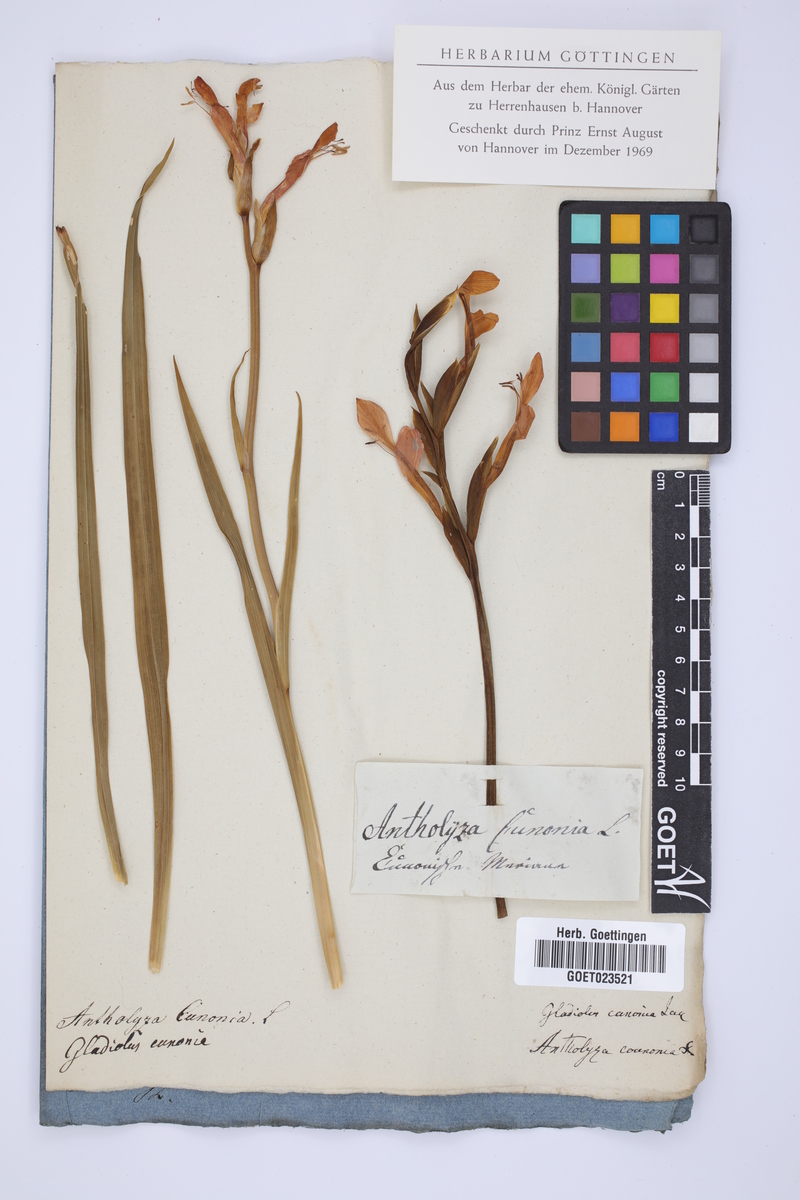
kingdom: Plantae
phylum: Tracheophyta
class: Liliopsida
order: Asparagales
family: Iridaceae
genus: Gladiolus
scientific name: Gladiolus cunonius
